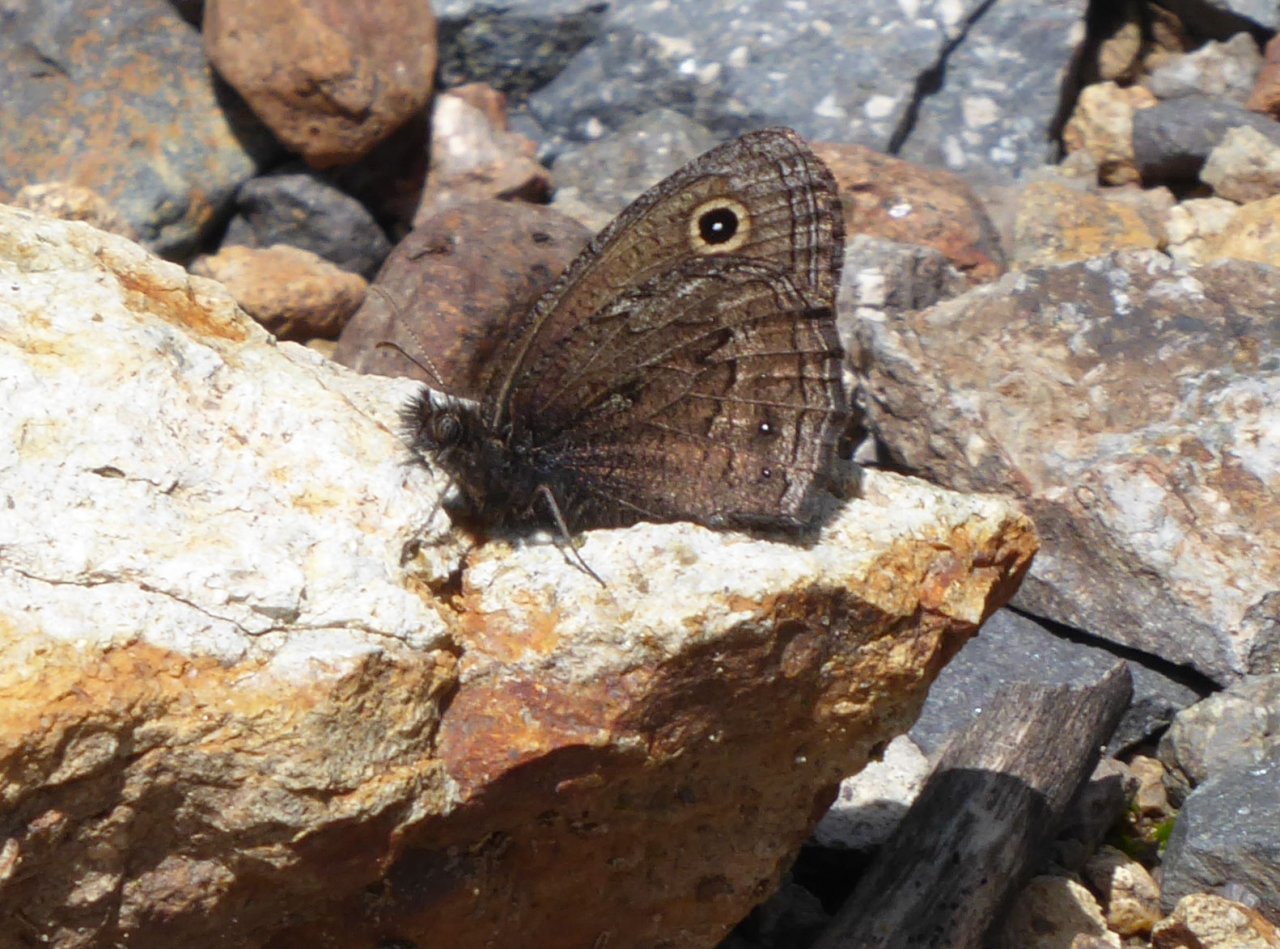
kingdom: Animalia
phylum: Arthropoda
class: Insecta
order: Lepidoptera
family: Nymphalidae
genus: Cercyonis
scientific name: Cercyonis oetus
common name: Small Wood-Nymph
